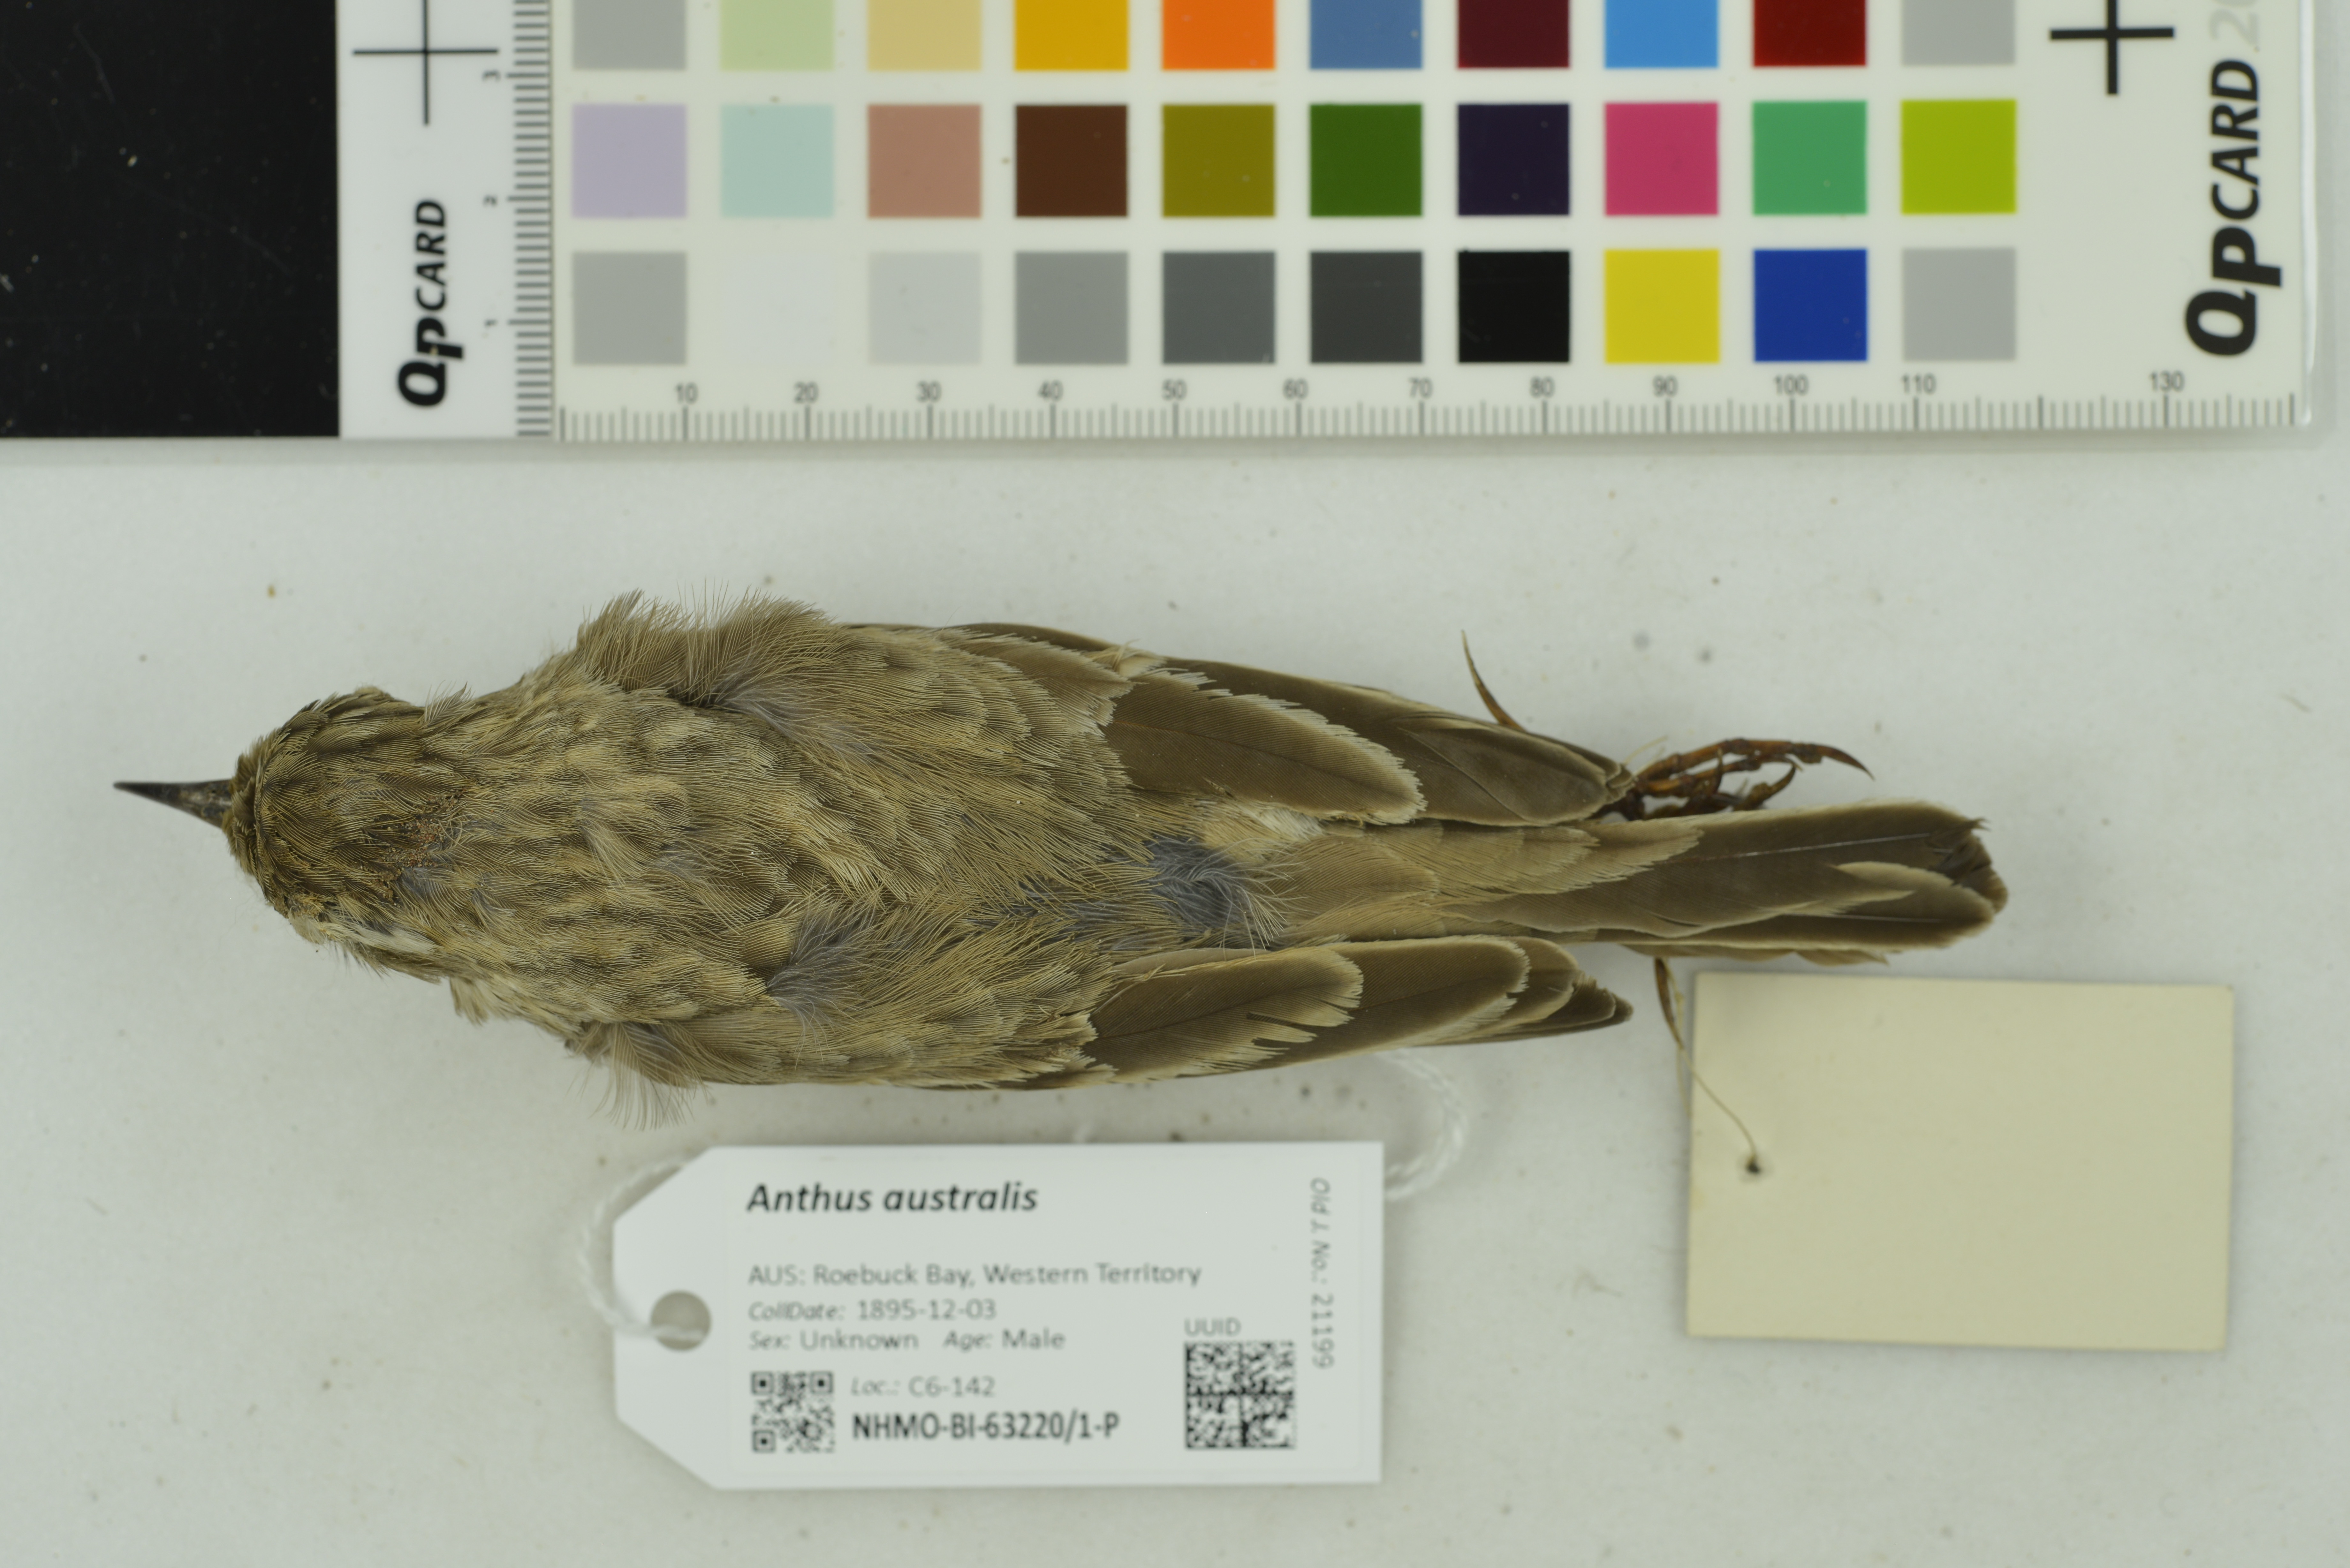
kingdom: Animalia
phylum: Chordata
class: Aves
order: Passeriformes
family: Motacillidae
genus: Anthus
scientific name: Anthus australis
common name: Australian pipit
